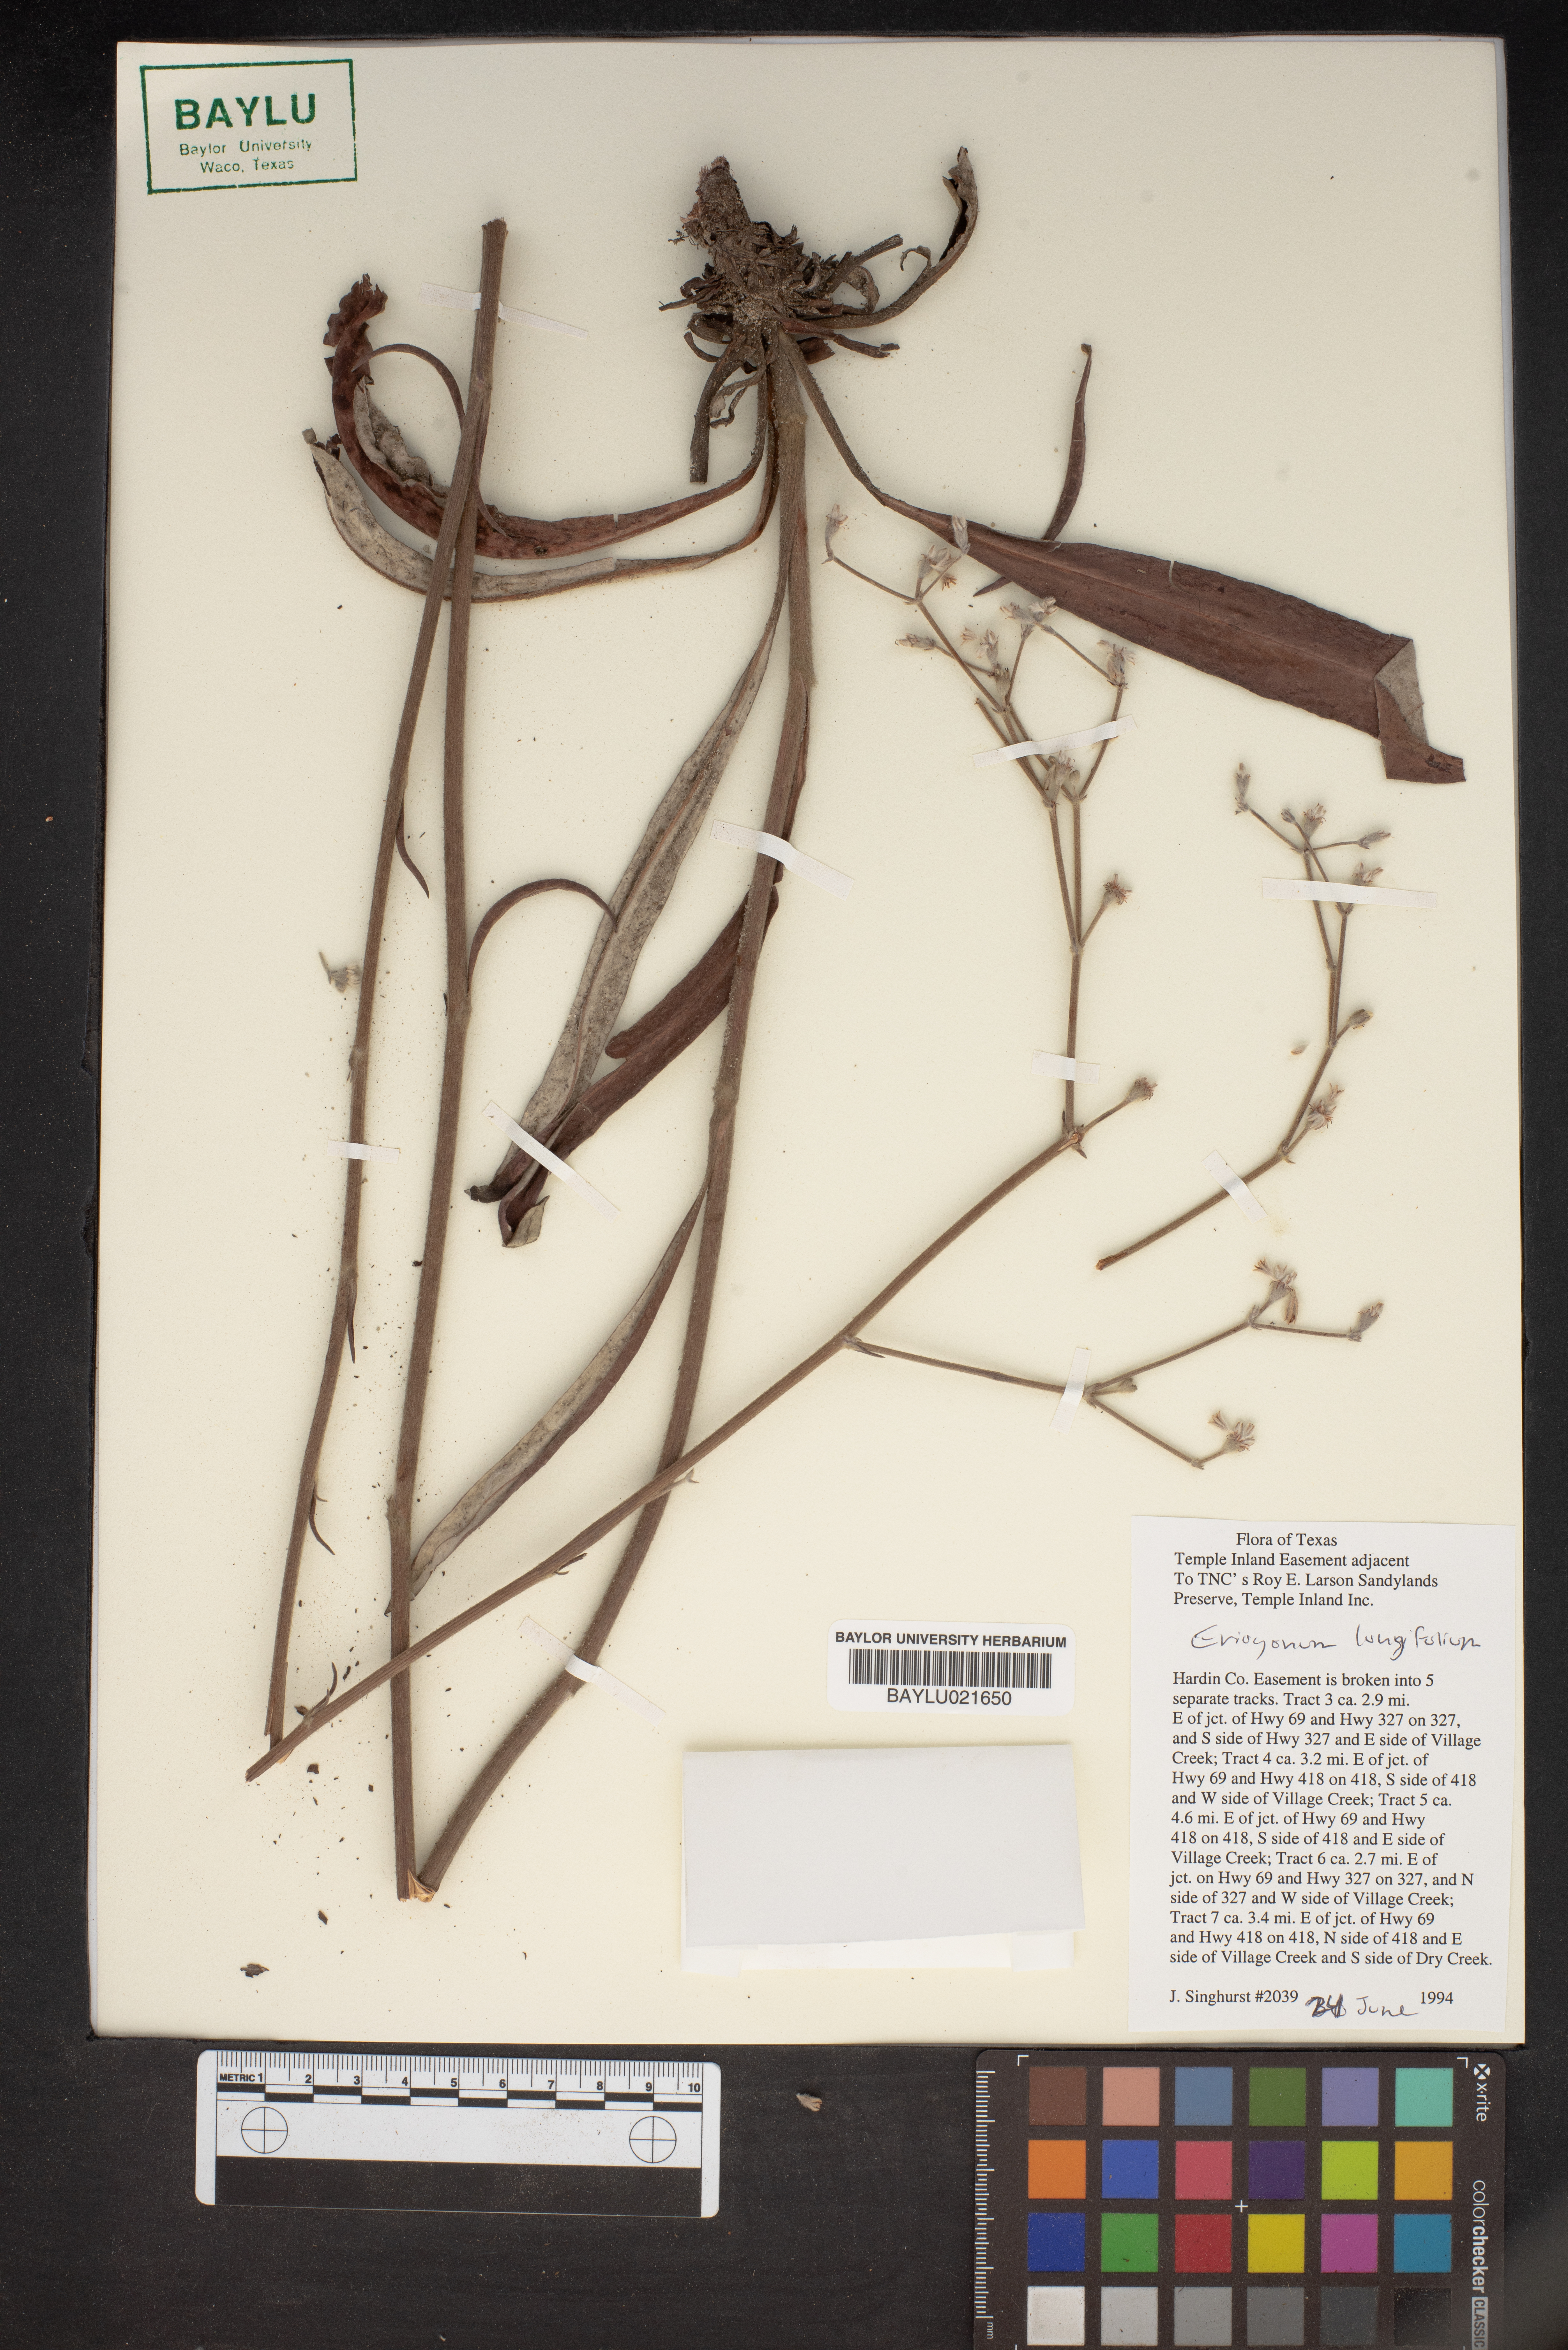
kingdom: Plantae
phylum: Tracheophyta
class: Magnoliopsida
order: Caryophyllales
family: Polygonaceae
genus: Eriogonum
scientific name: Eriogonum longifolium
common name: Longleaf wild buckwheat
